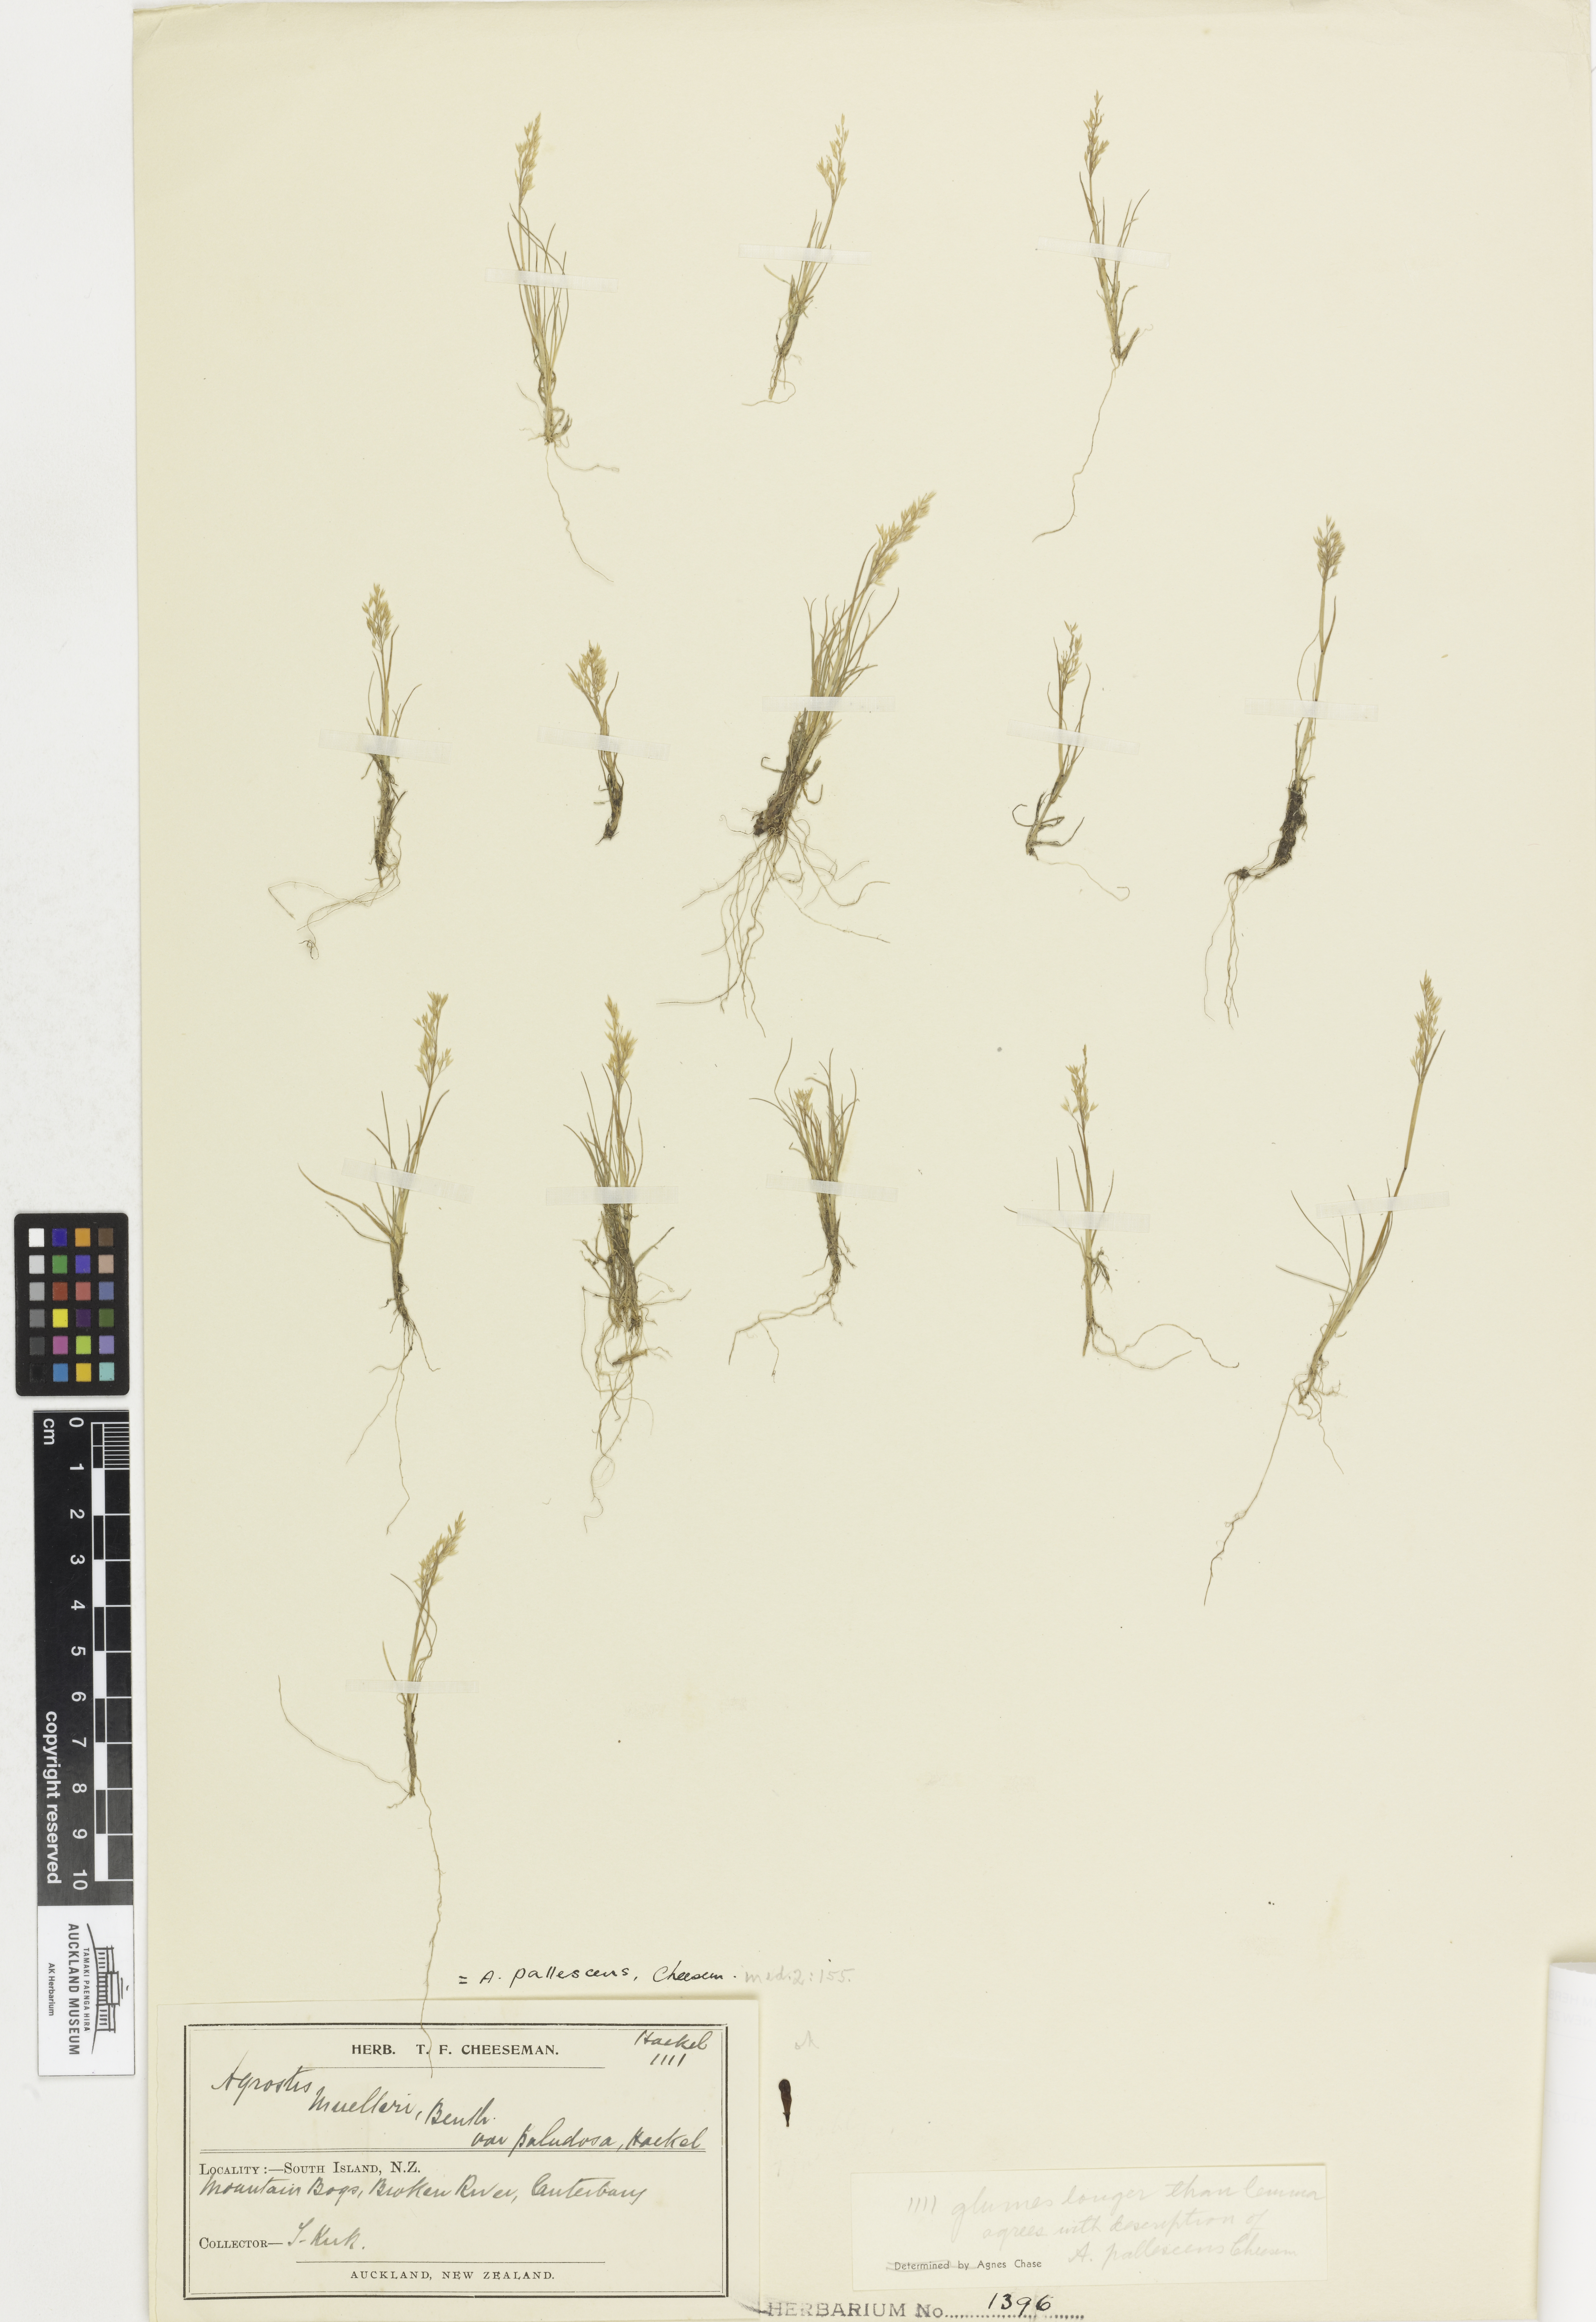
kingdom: Plantae
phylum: Tracheophyta
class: Liliopsida
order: Poales
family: Poaceae
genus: Agrostis
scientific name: Agrostis pallescens
